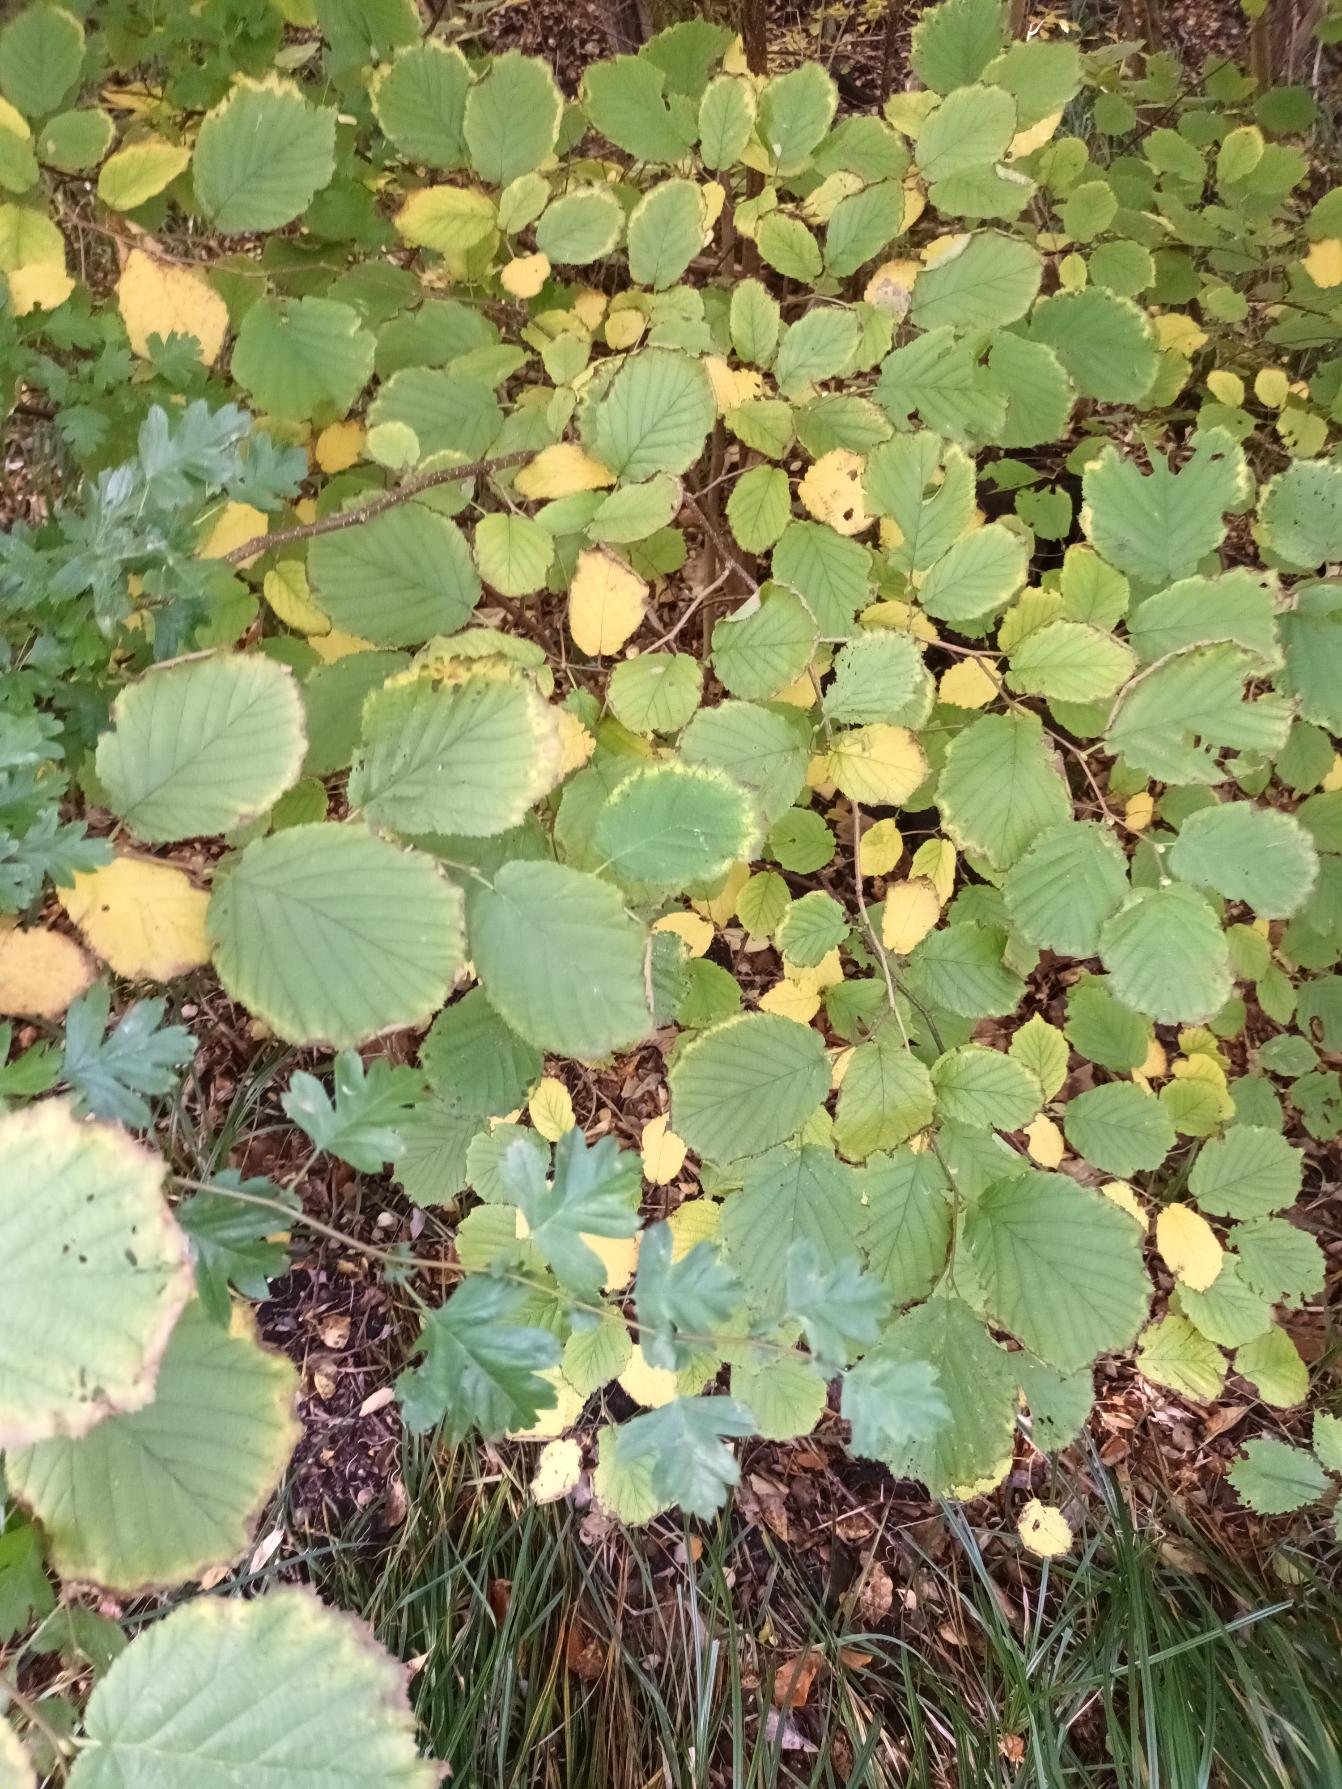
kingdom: Plantae
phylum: Tracheophyta
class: Magnoliopsida
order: Fagales
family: Betulaceae
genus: Corylus
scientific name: Corylus avellana
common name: Hassel
